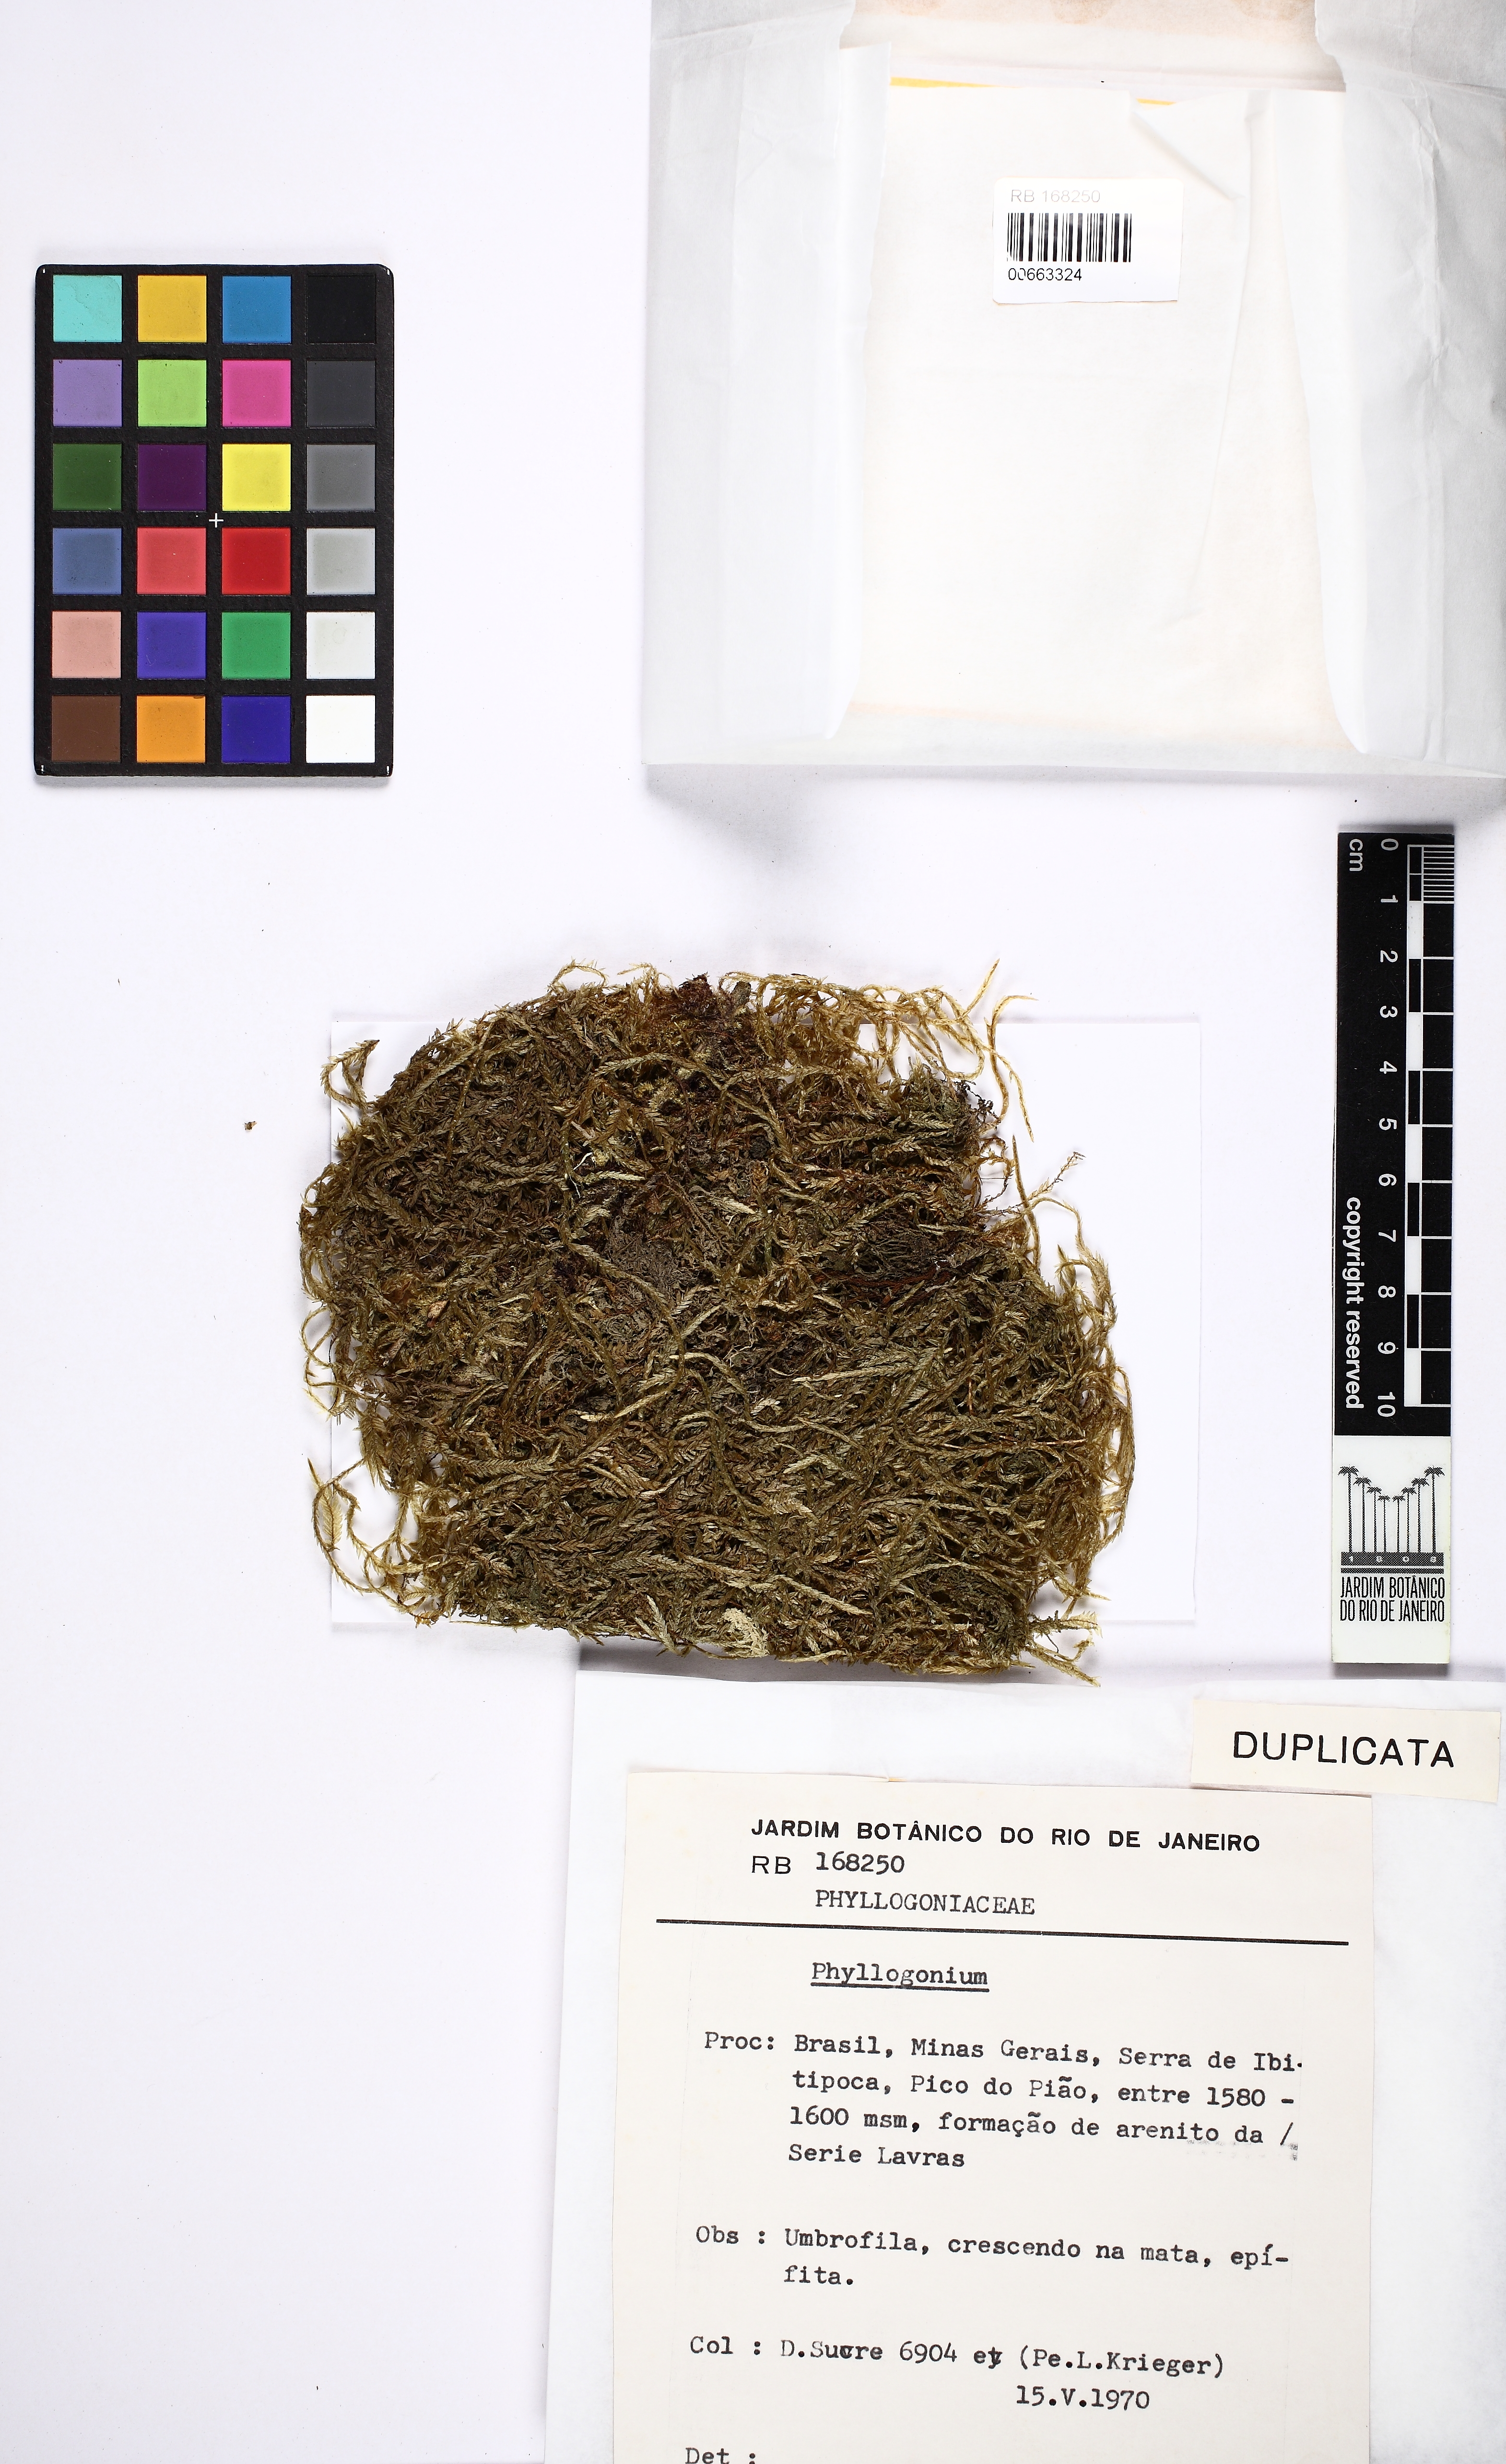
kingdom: Plantae
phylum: Bryophyta
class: Bryopsida
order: Hypnales
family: Phyllogoniaceae
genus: Phyllogonium
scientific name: Phyllogonium
